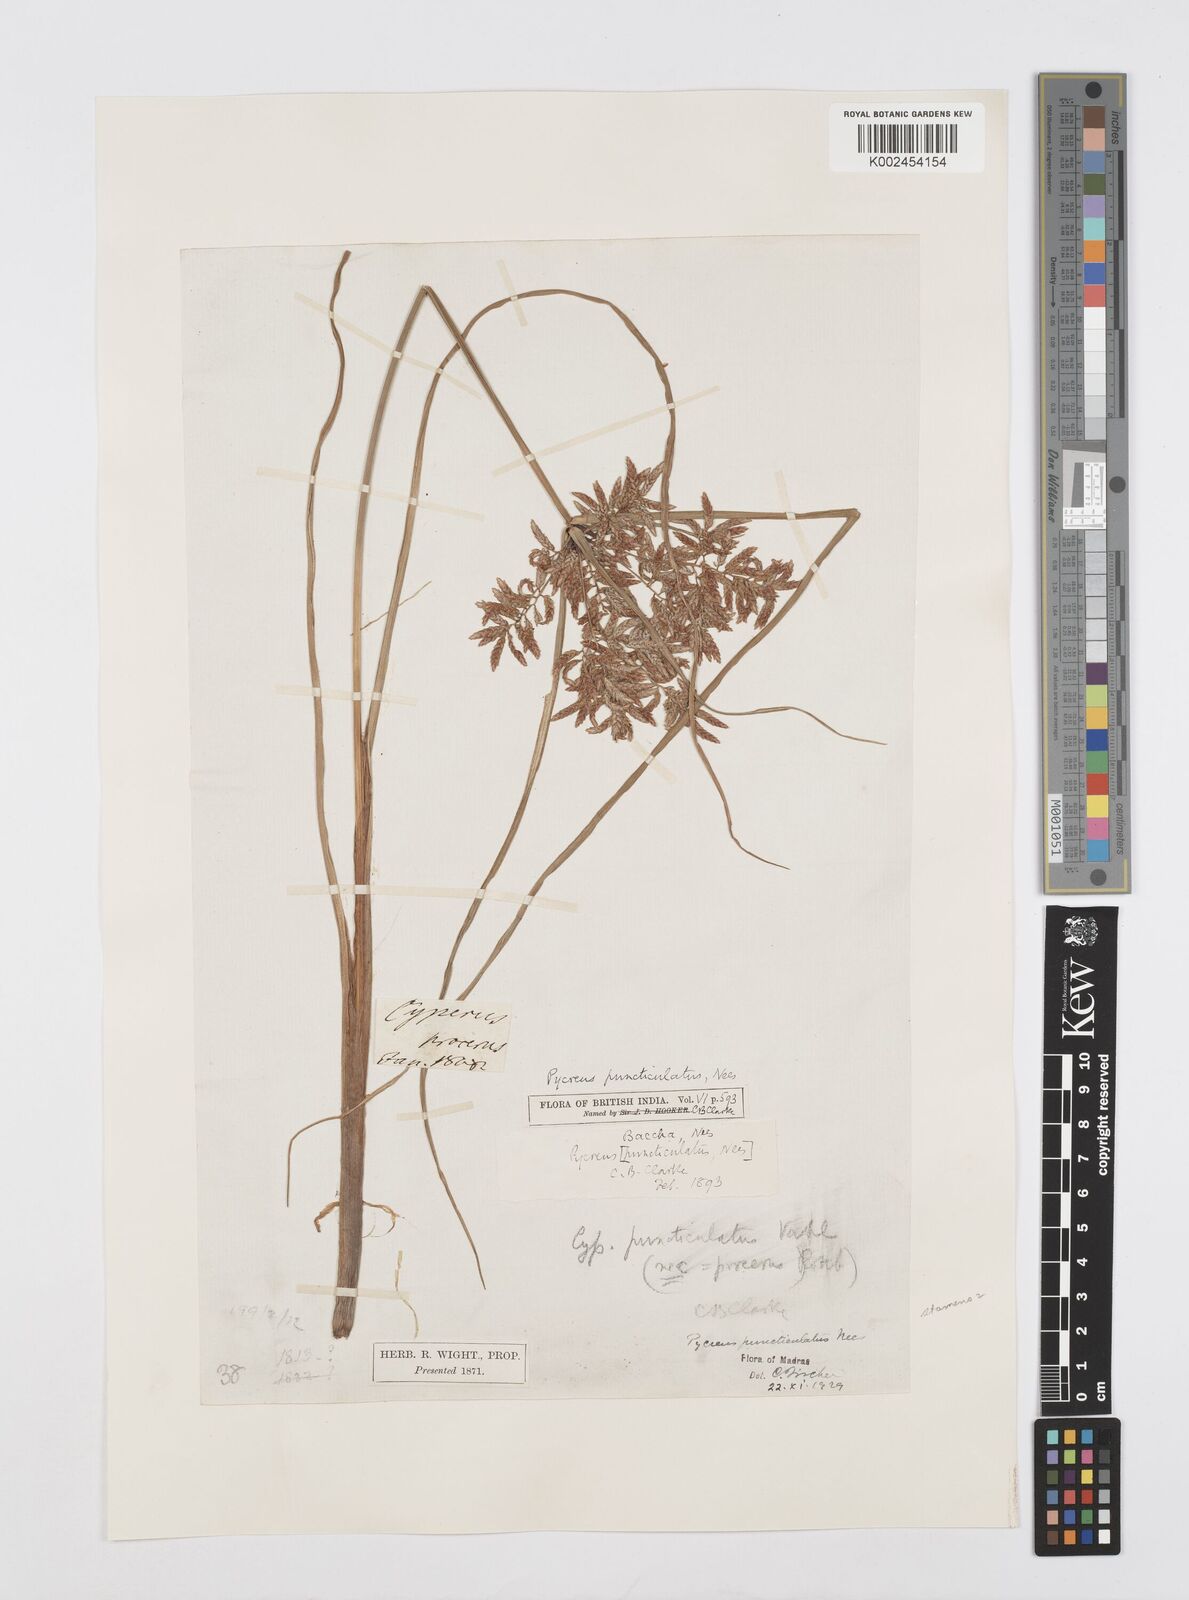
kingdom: Plantae
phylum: Tracheophyta
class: Liliopsida
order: Poales
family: Cyperaceae
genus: Cyperus
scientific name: Cyperus serotinus
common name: Tidalmarsh flatsedge
